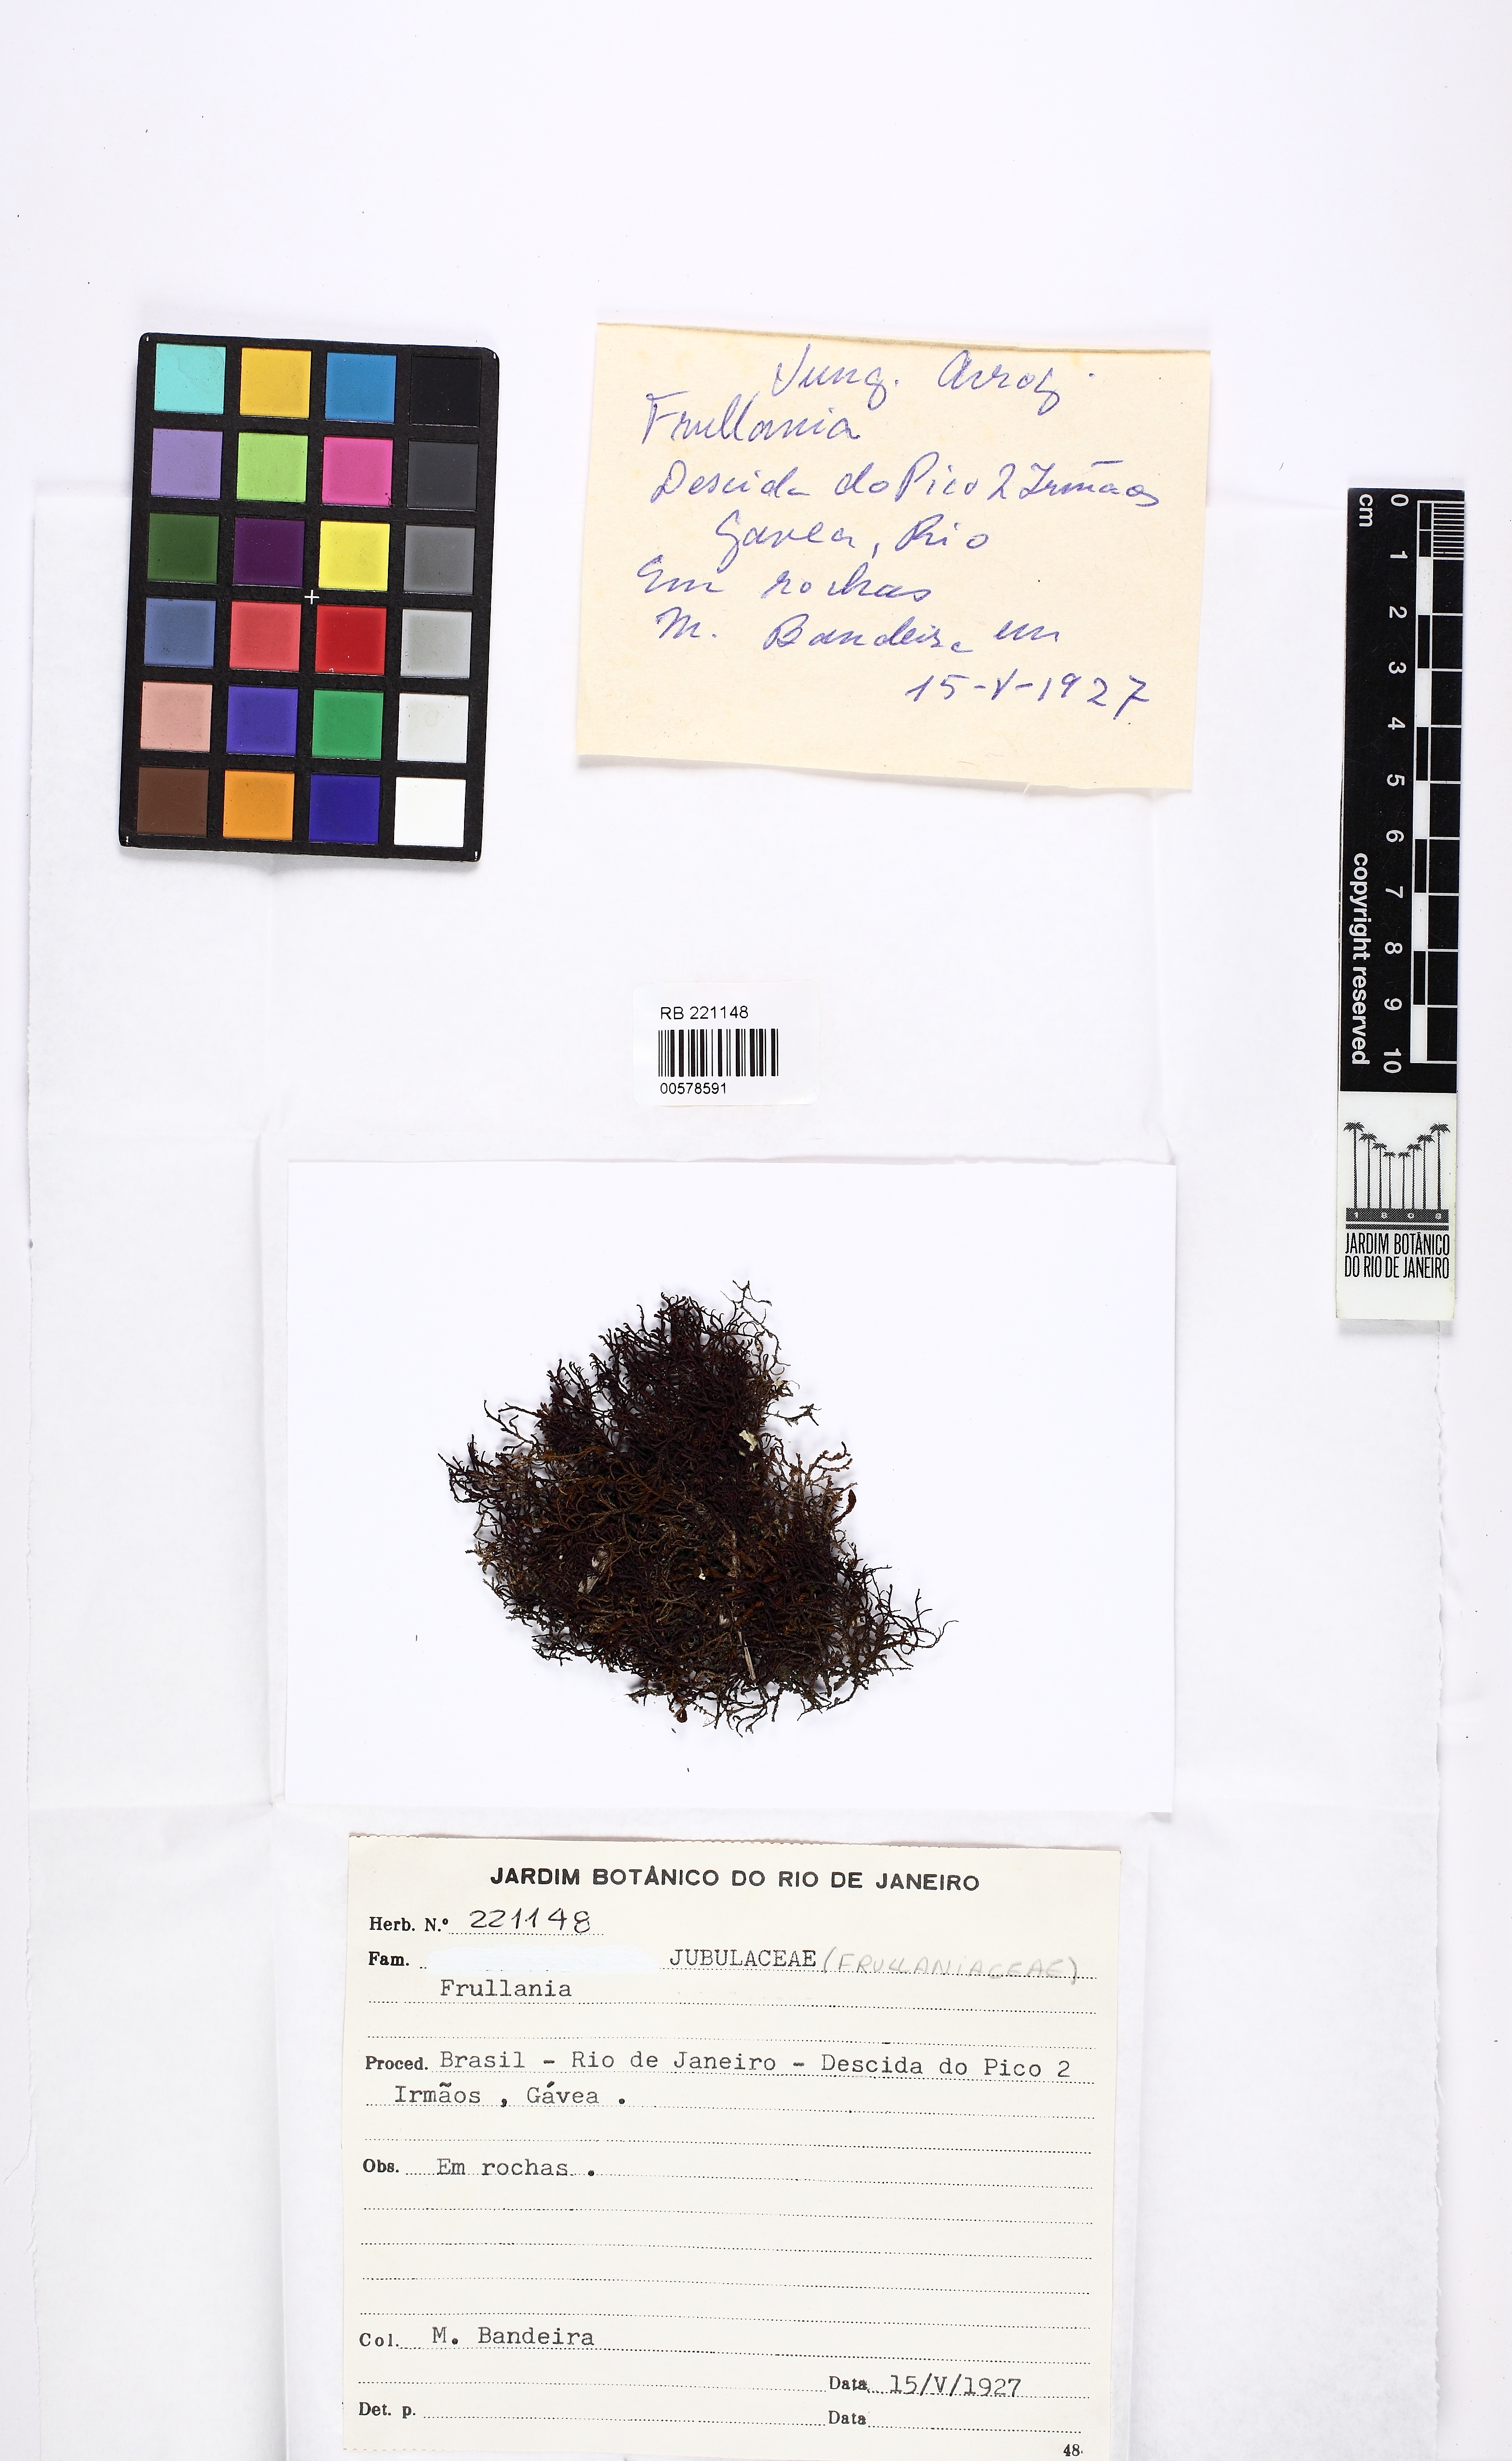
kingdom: Plantae
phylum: Marchantiophyta
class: Jungermanniopsida
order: Porellales
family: Frullaniaceae
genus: Frullania
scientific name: Frullania
